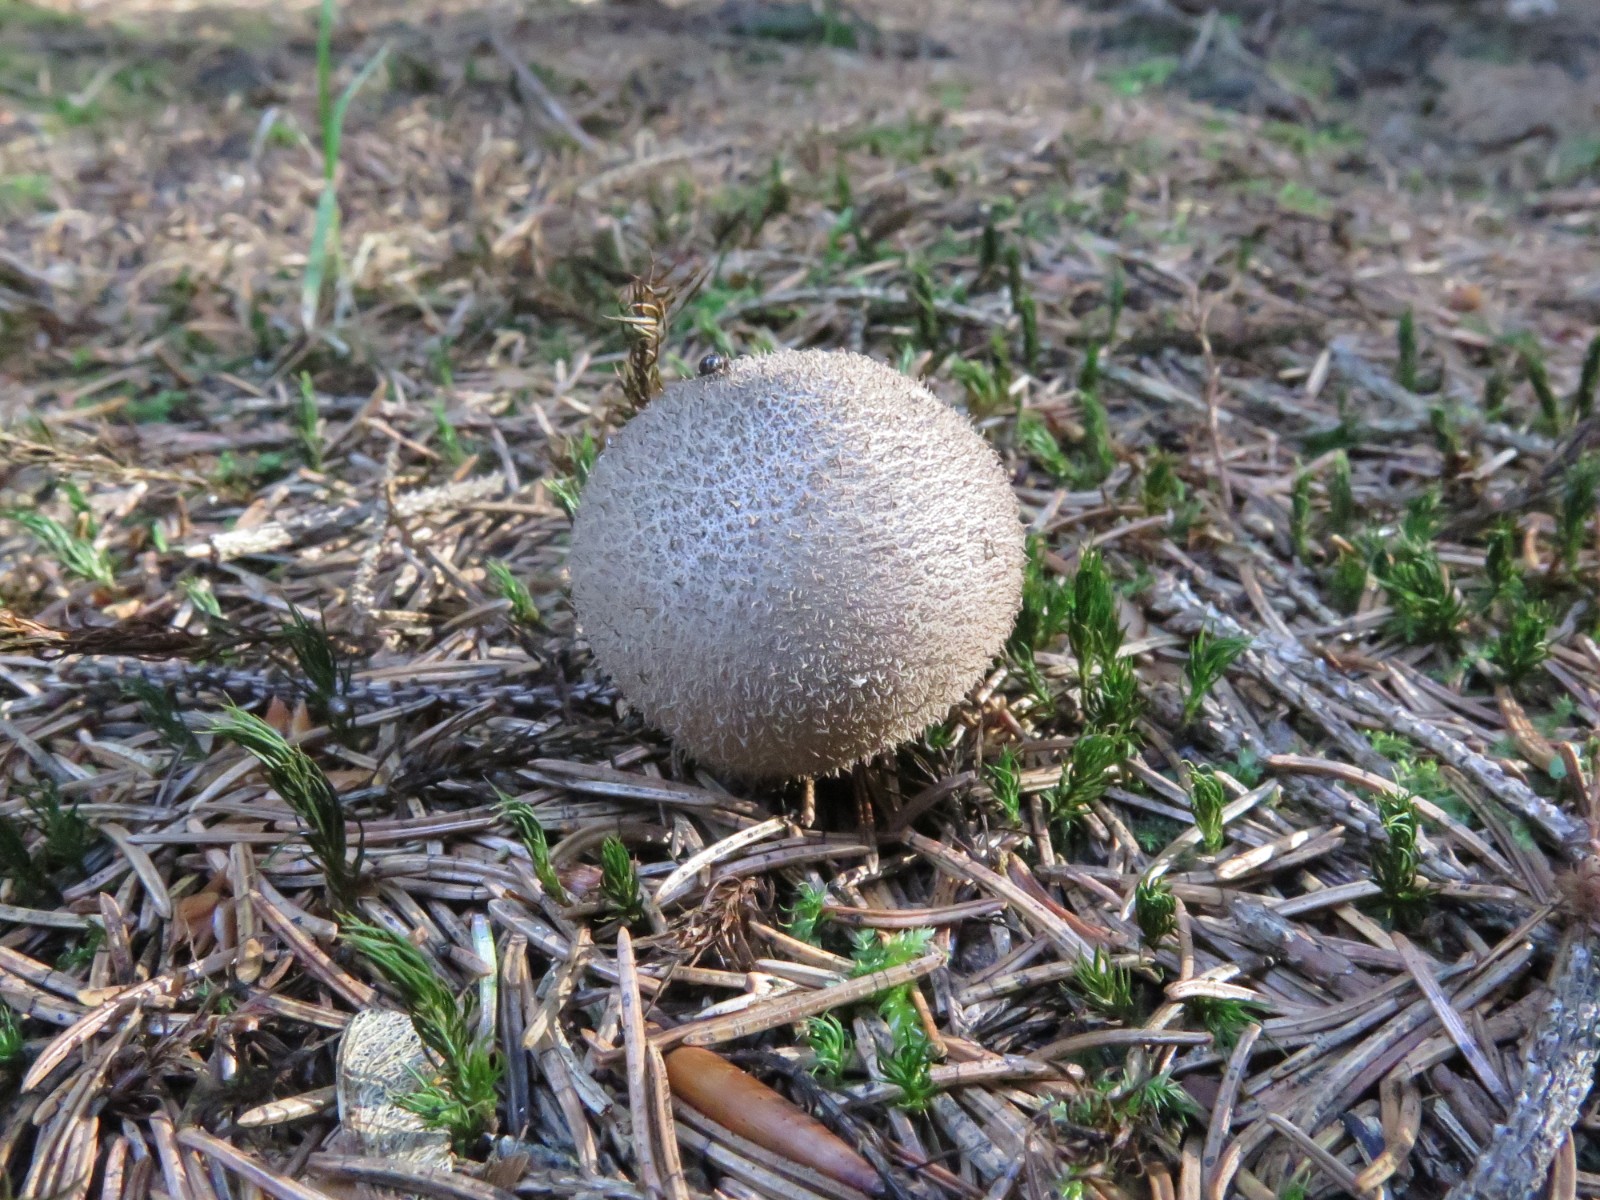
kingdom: Fungi
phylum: Basidiomycota
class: Agaricomycetes
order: Agaricales
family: Agaricaceae
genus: Lycoperdon
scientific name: Lycoperdon
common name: støvbold
